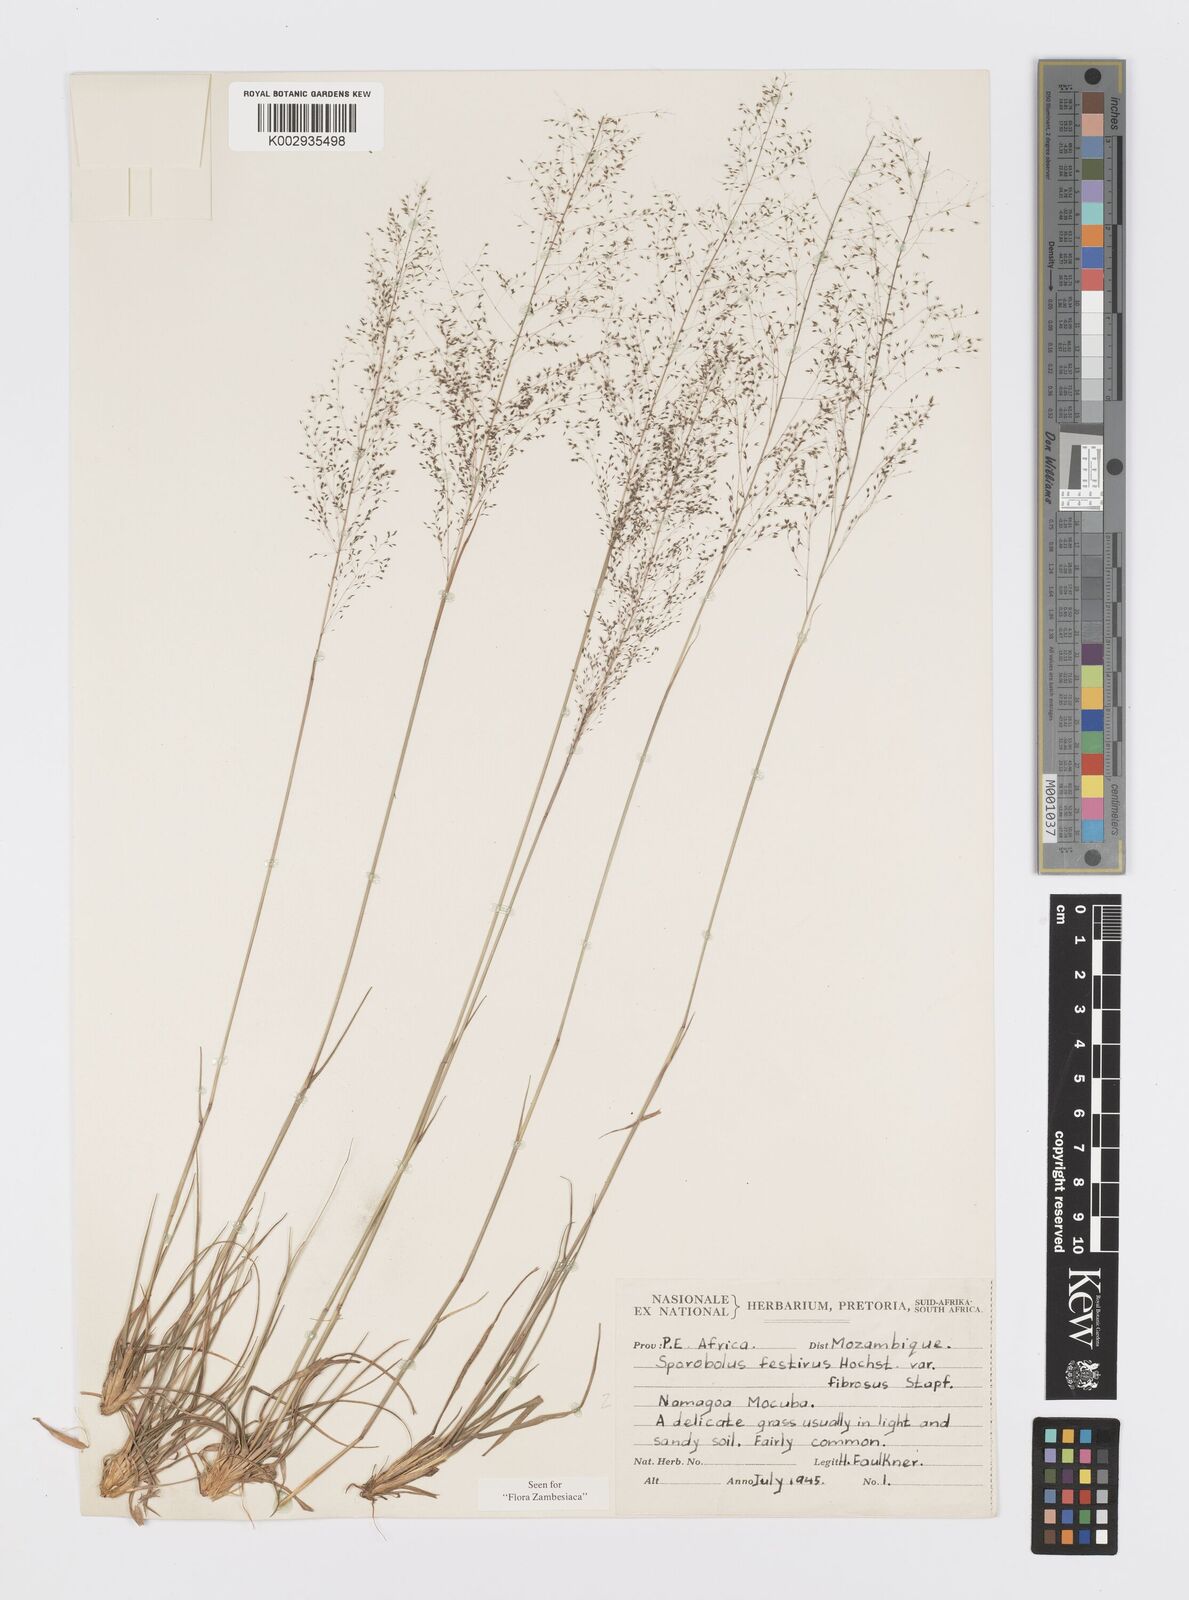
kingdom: Plantae
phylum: Tracheophyta
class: Liliopsida
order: Poales
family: Poaceae
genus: Sporobolus
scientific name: Sporobolus festivus
